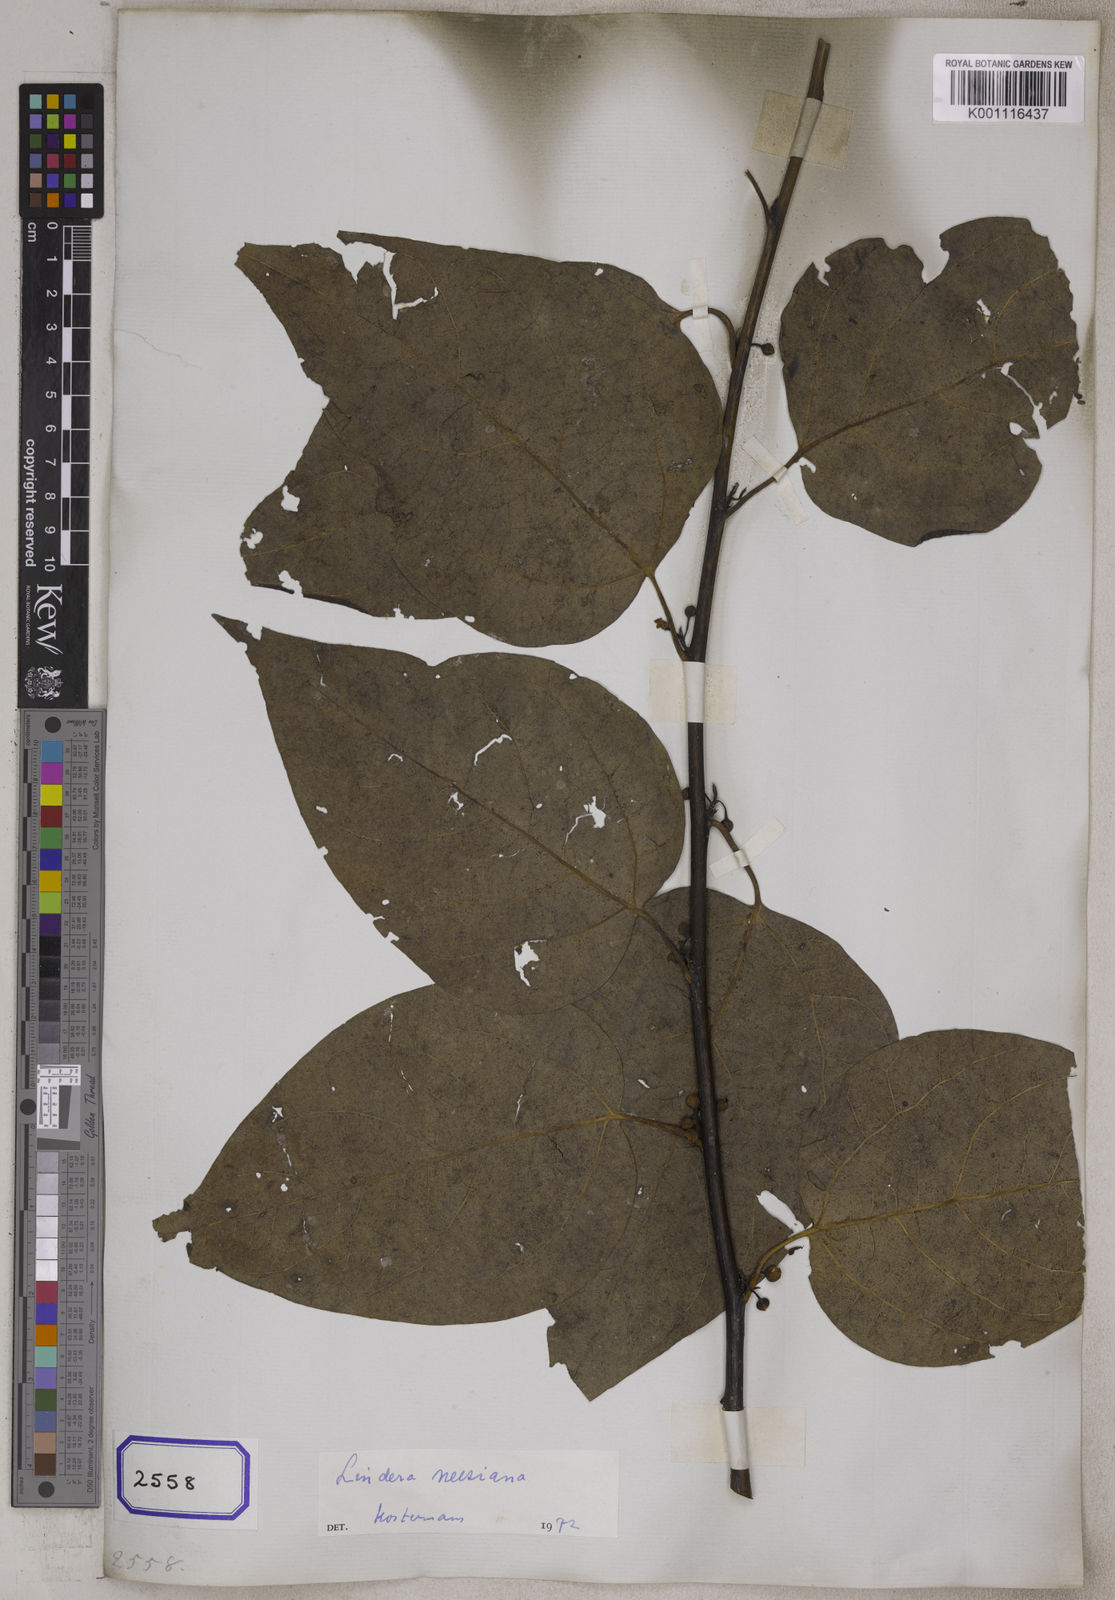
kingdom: Plantae
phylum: Tracheophyta
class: Magnoliopsida
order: Laurales
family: Lauraceae
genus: Lindera
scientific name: Lindera neesiana
